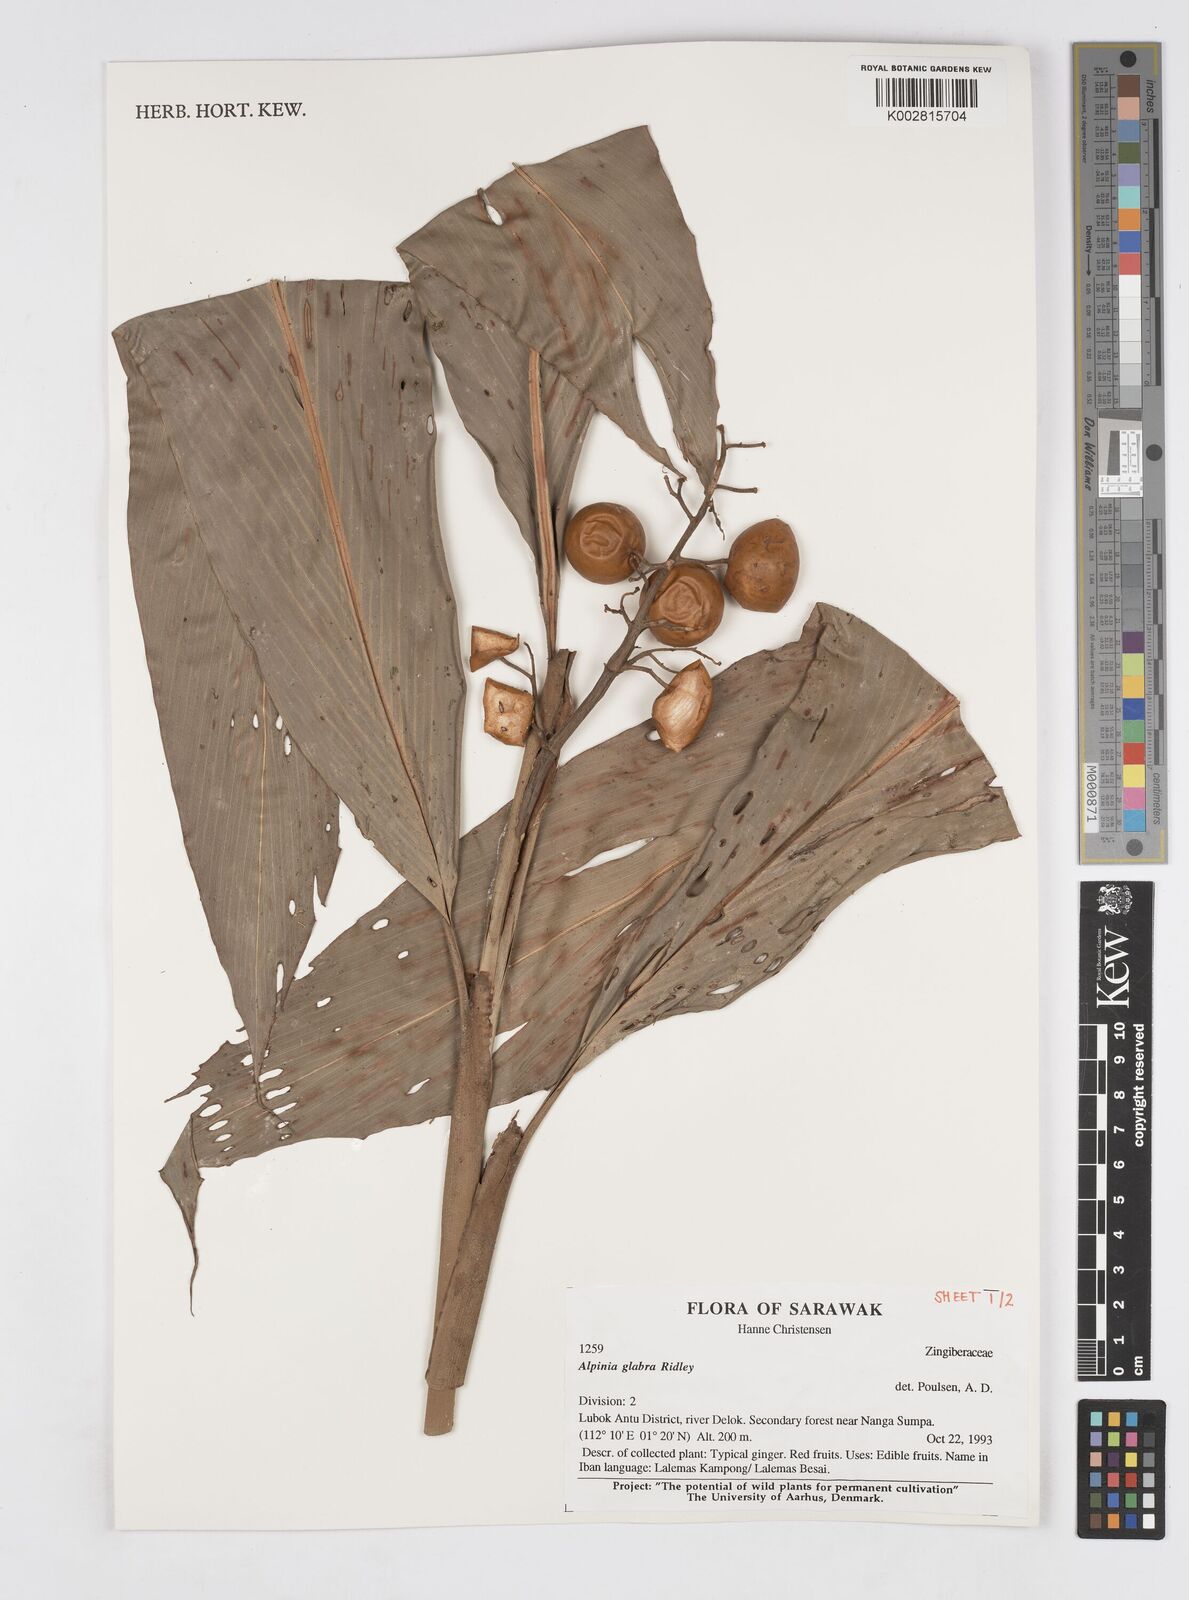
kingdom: Plantae
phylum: Tracheophyta
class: Liliopsida
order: Zingiberales
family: Zingiberaceae
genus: Alpinia
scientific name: Alpinia glabra
